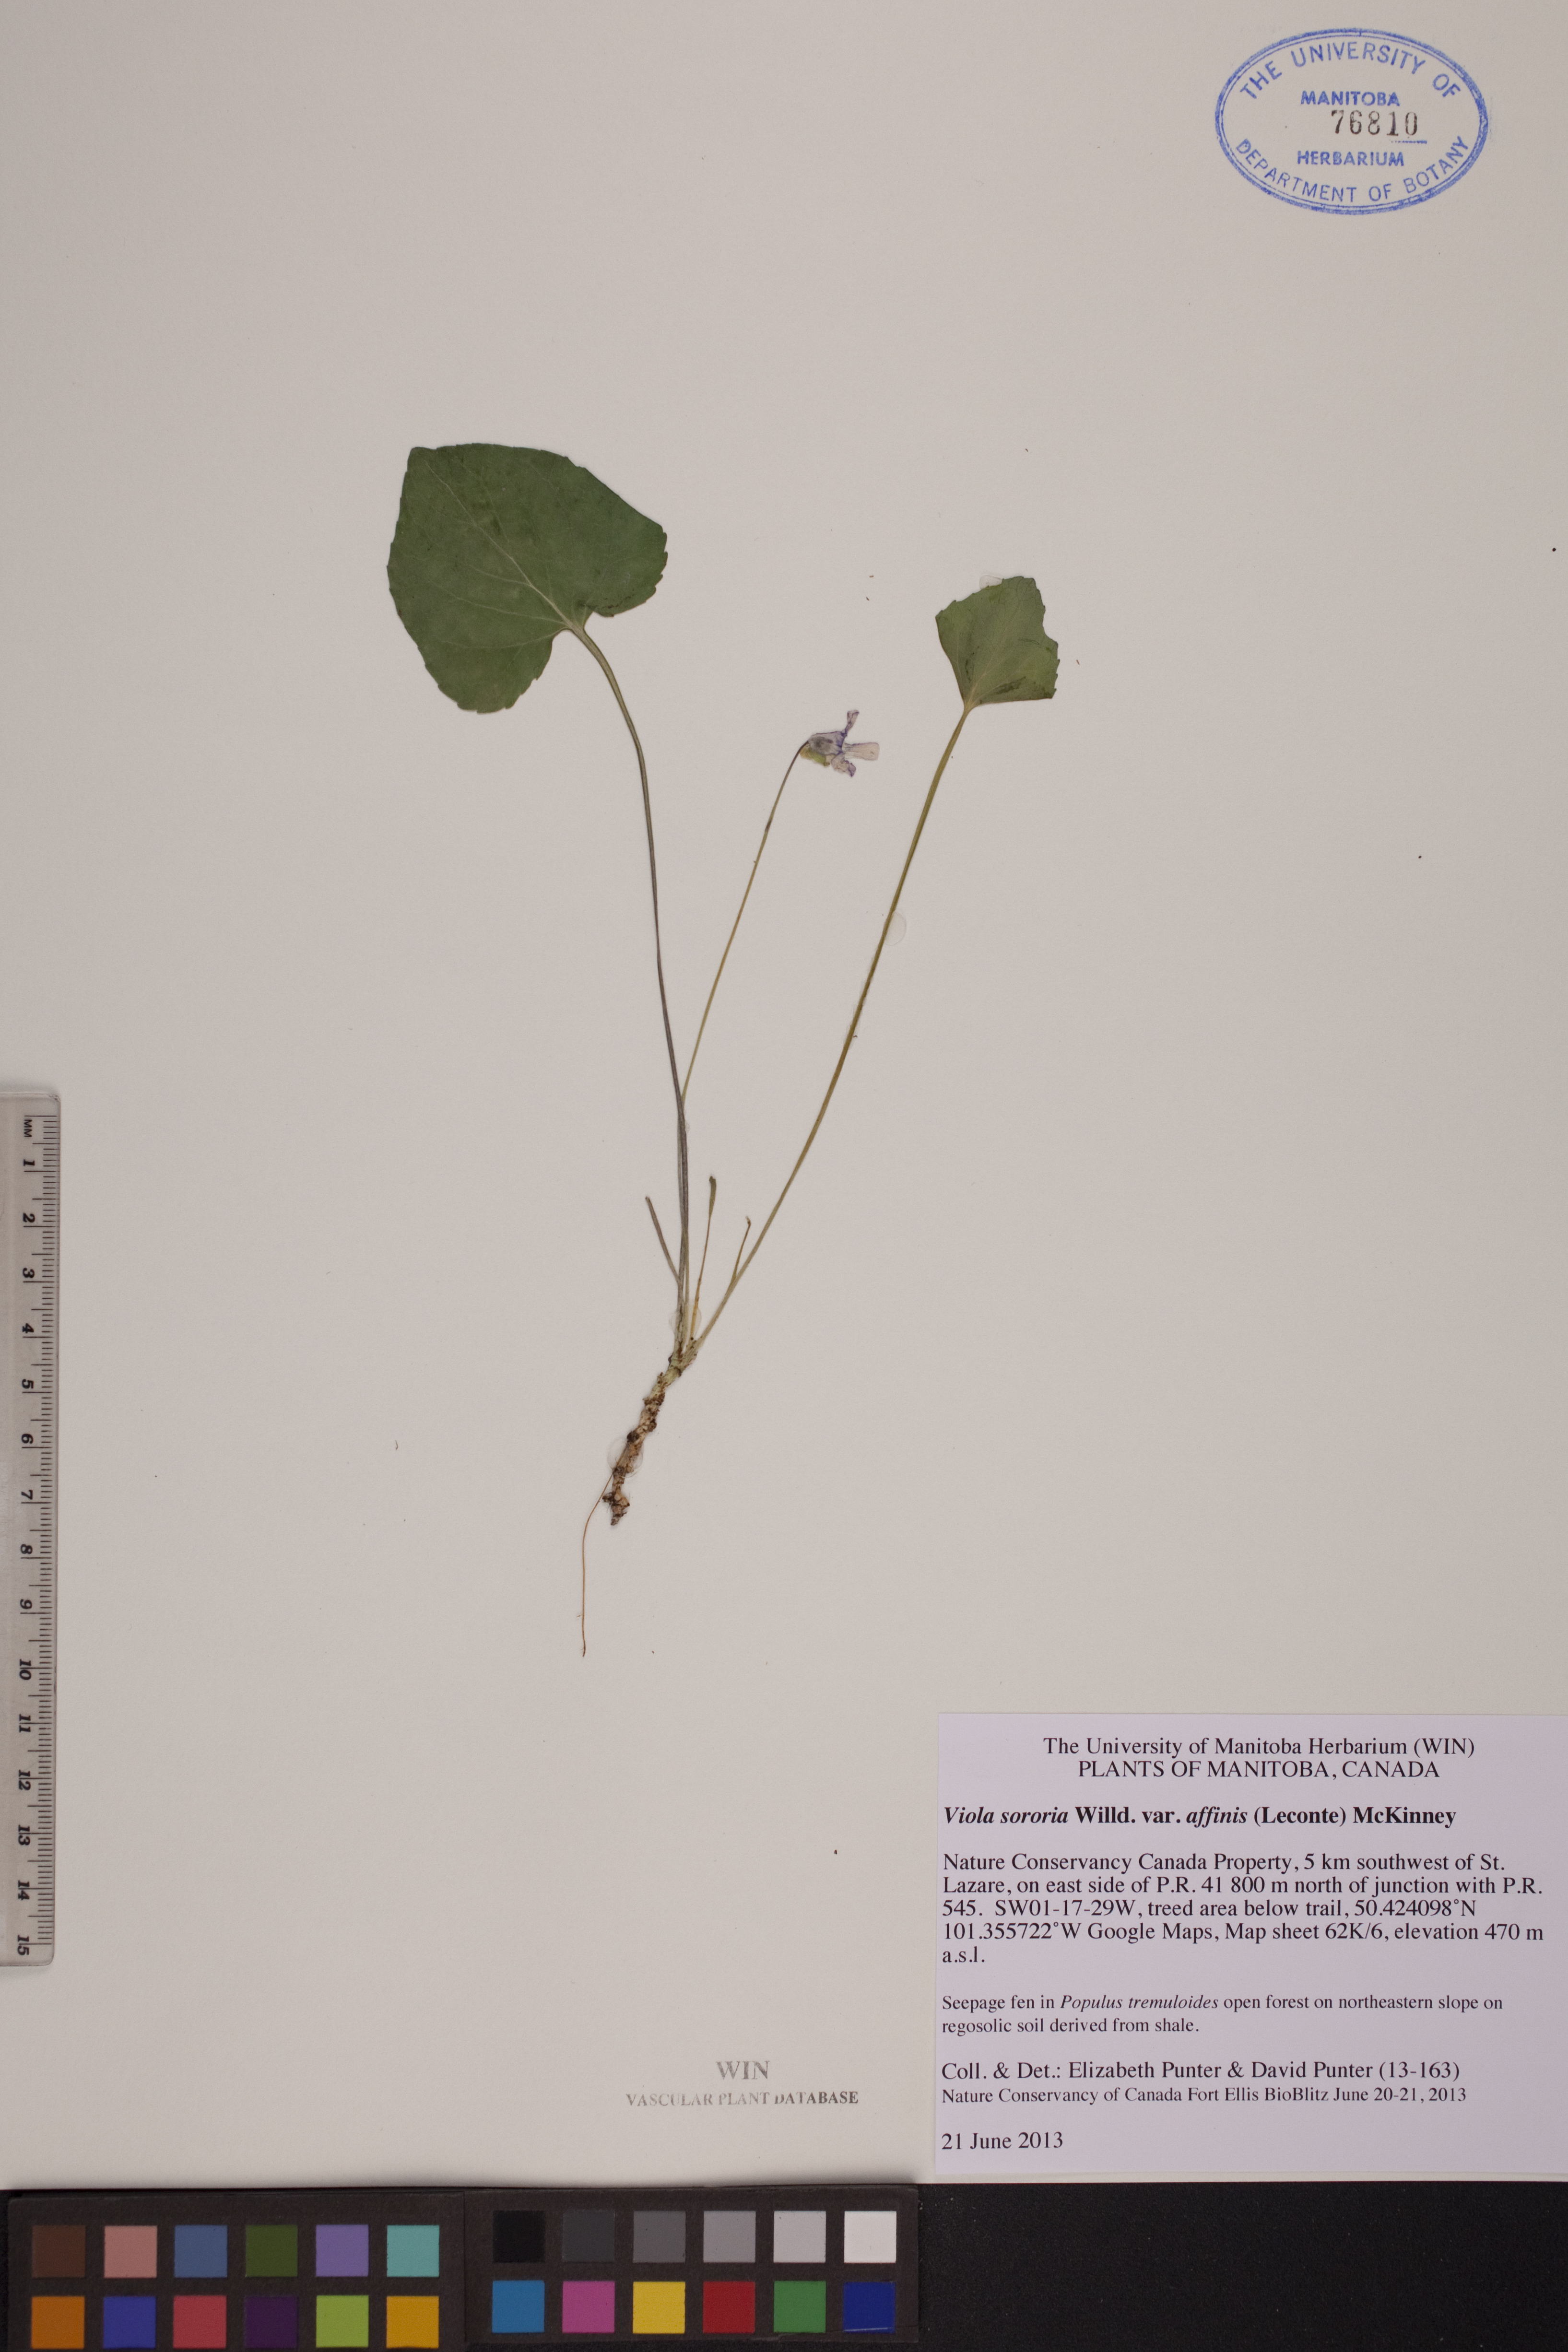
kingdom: Plantae
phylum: Tracheophyta
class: Magnoliopsida
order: Malpighiales
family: Violaceae
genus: Viola
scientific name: Viola affinis
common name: Leconte's violet
